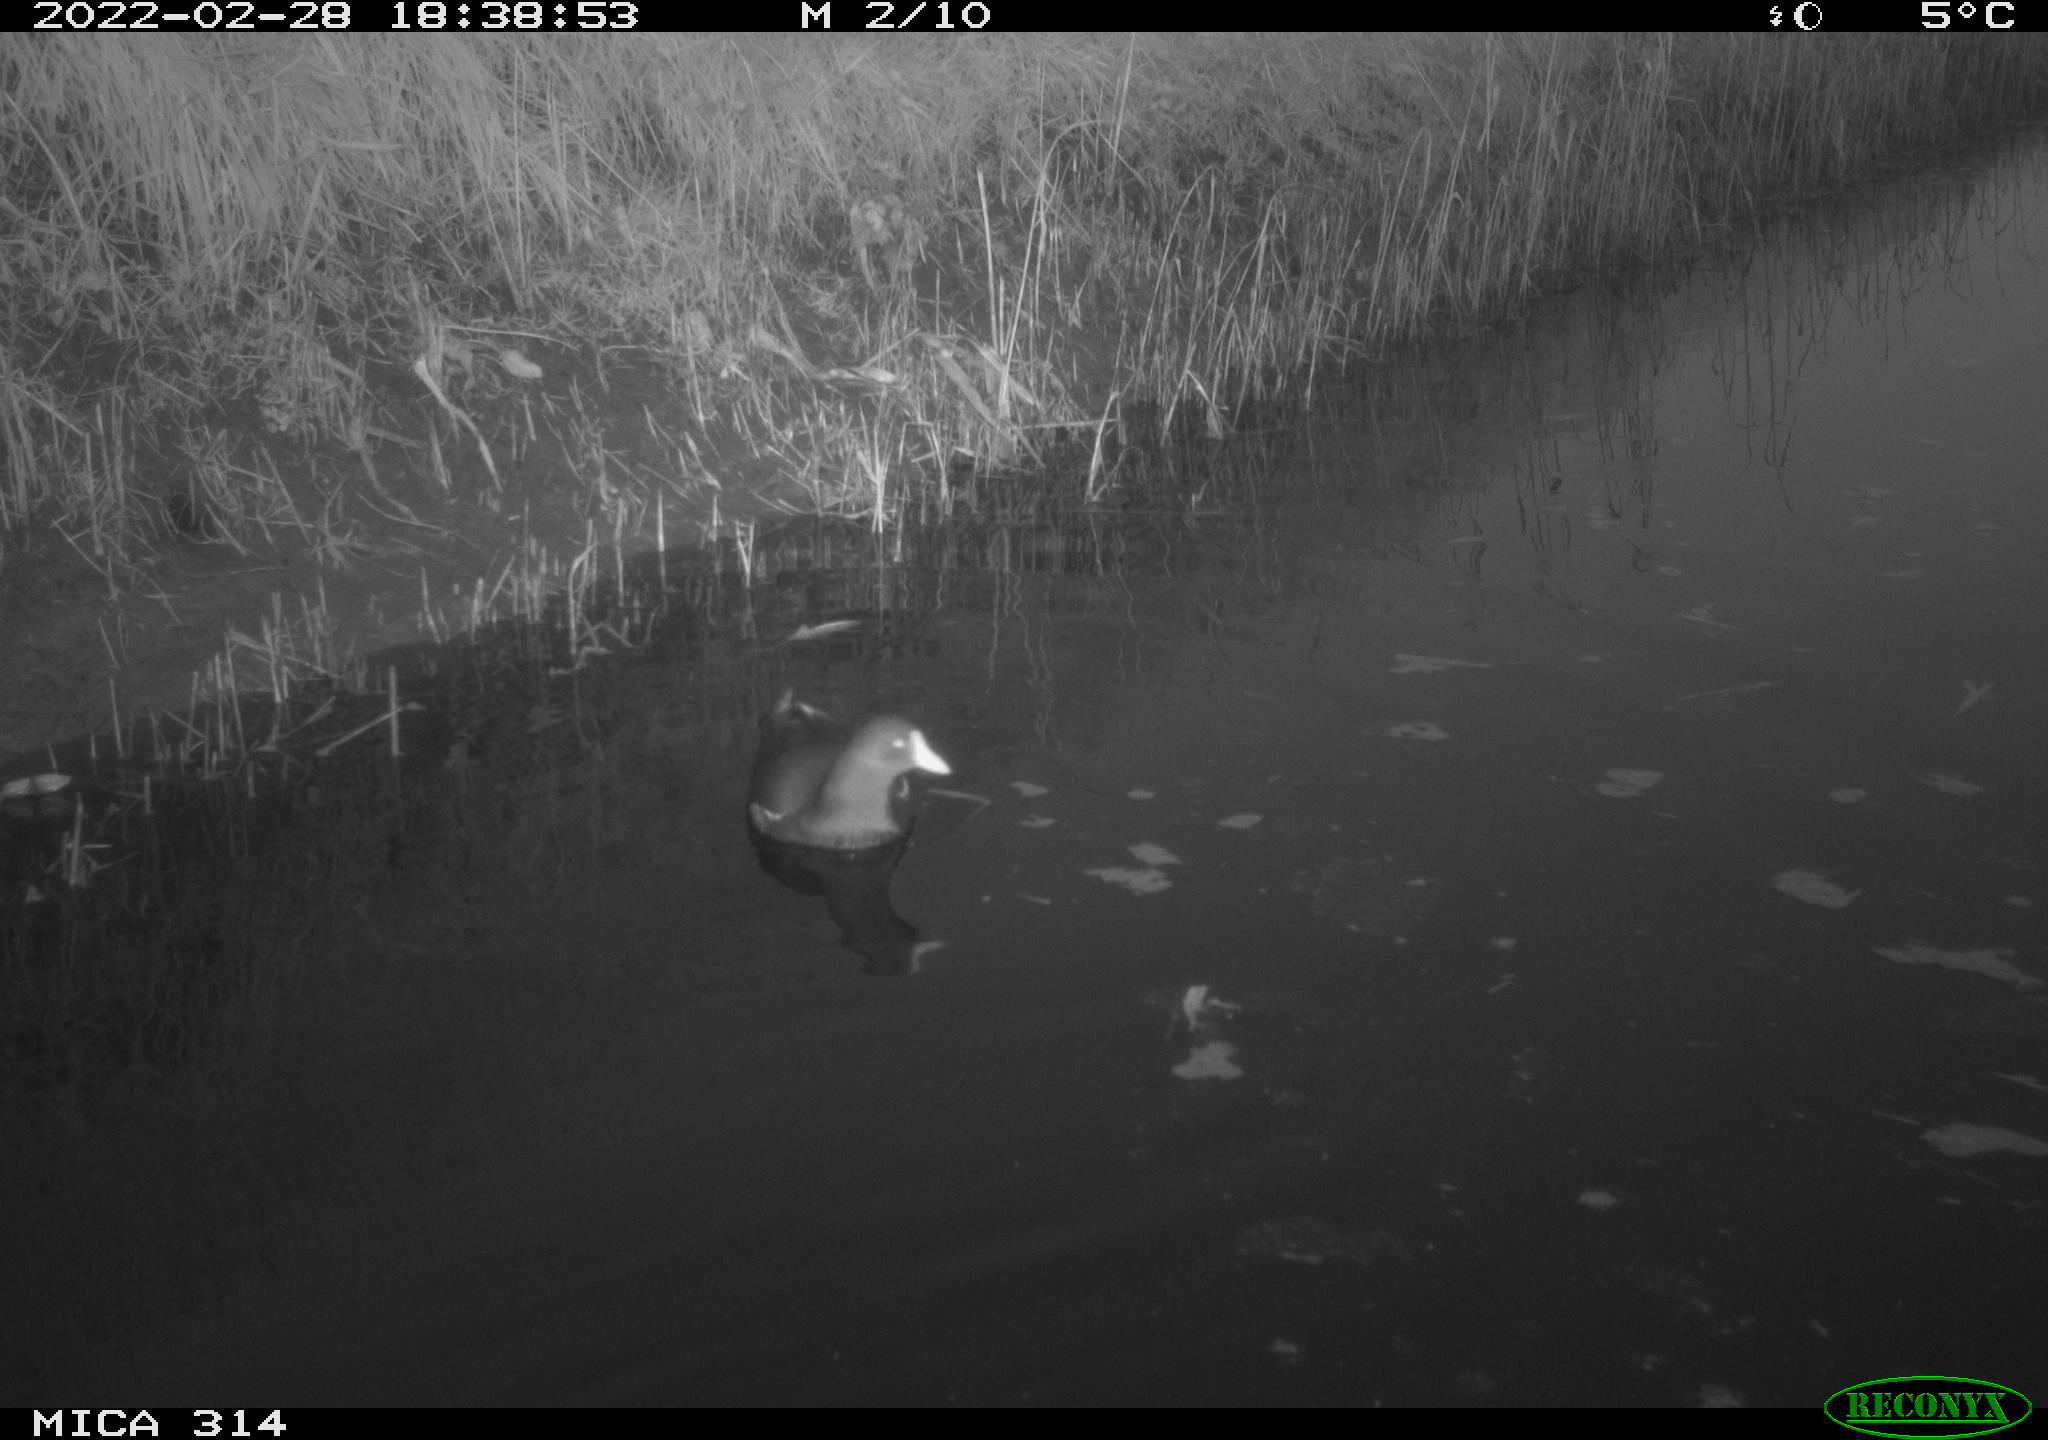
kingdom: Animalia
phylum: Chordata
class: Aves
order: Gruiformes
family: Rallidae
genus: Gallinula
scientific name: Gallinula chloropus
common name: Common moorhen
